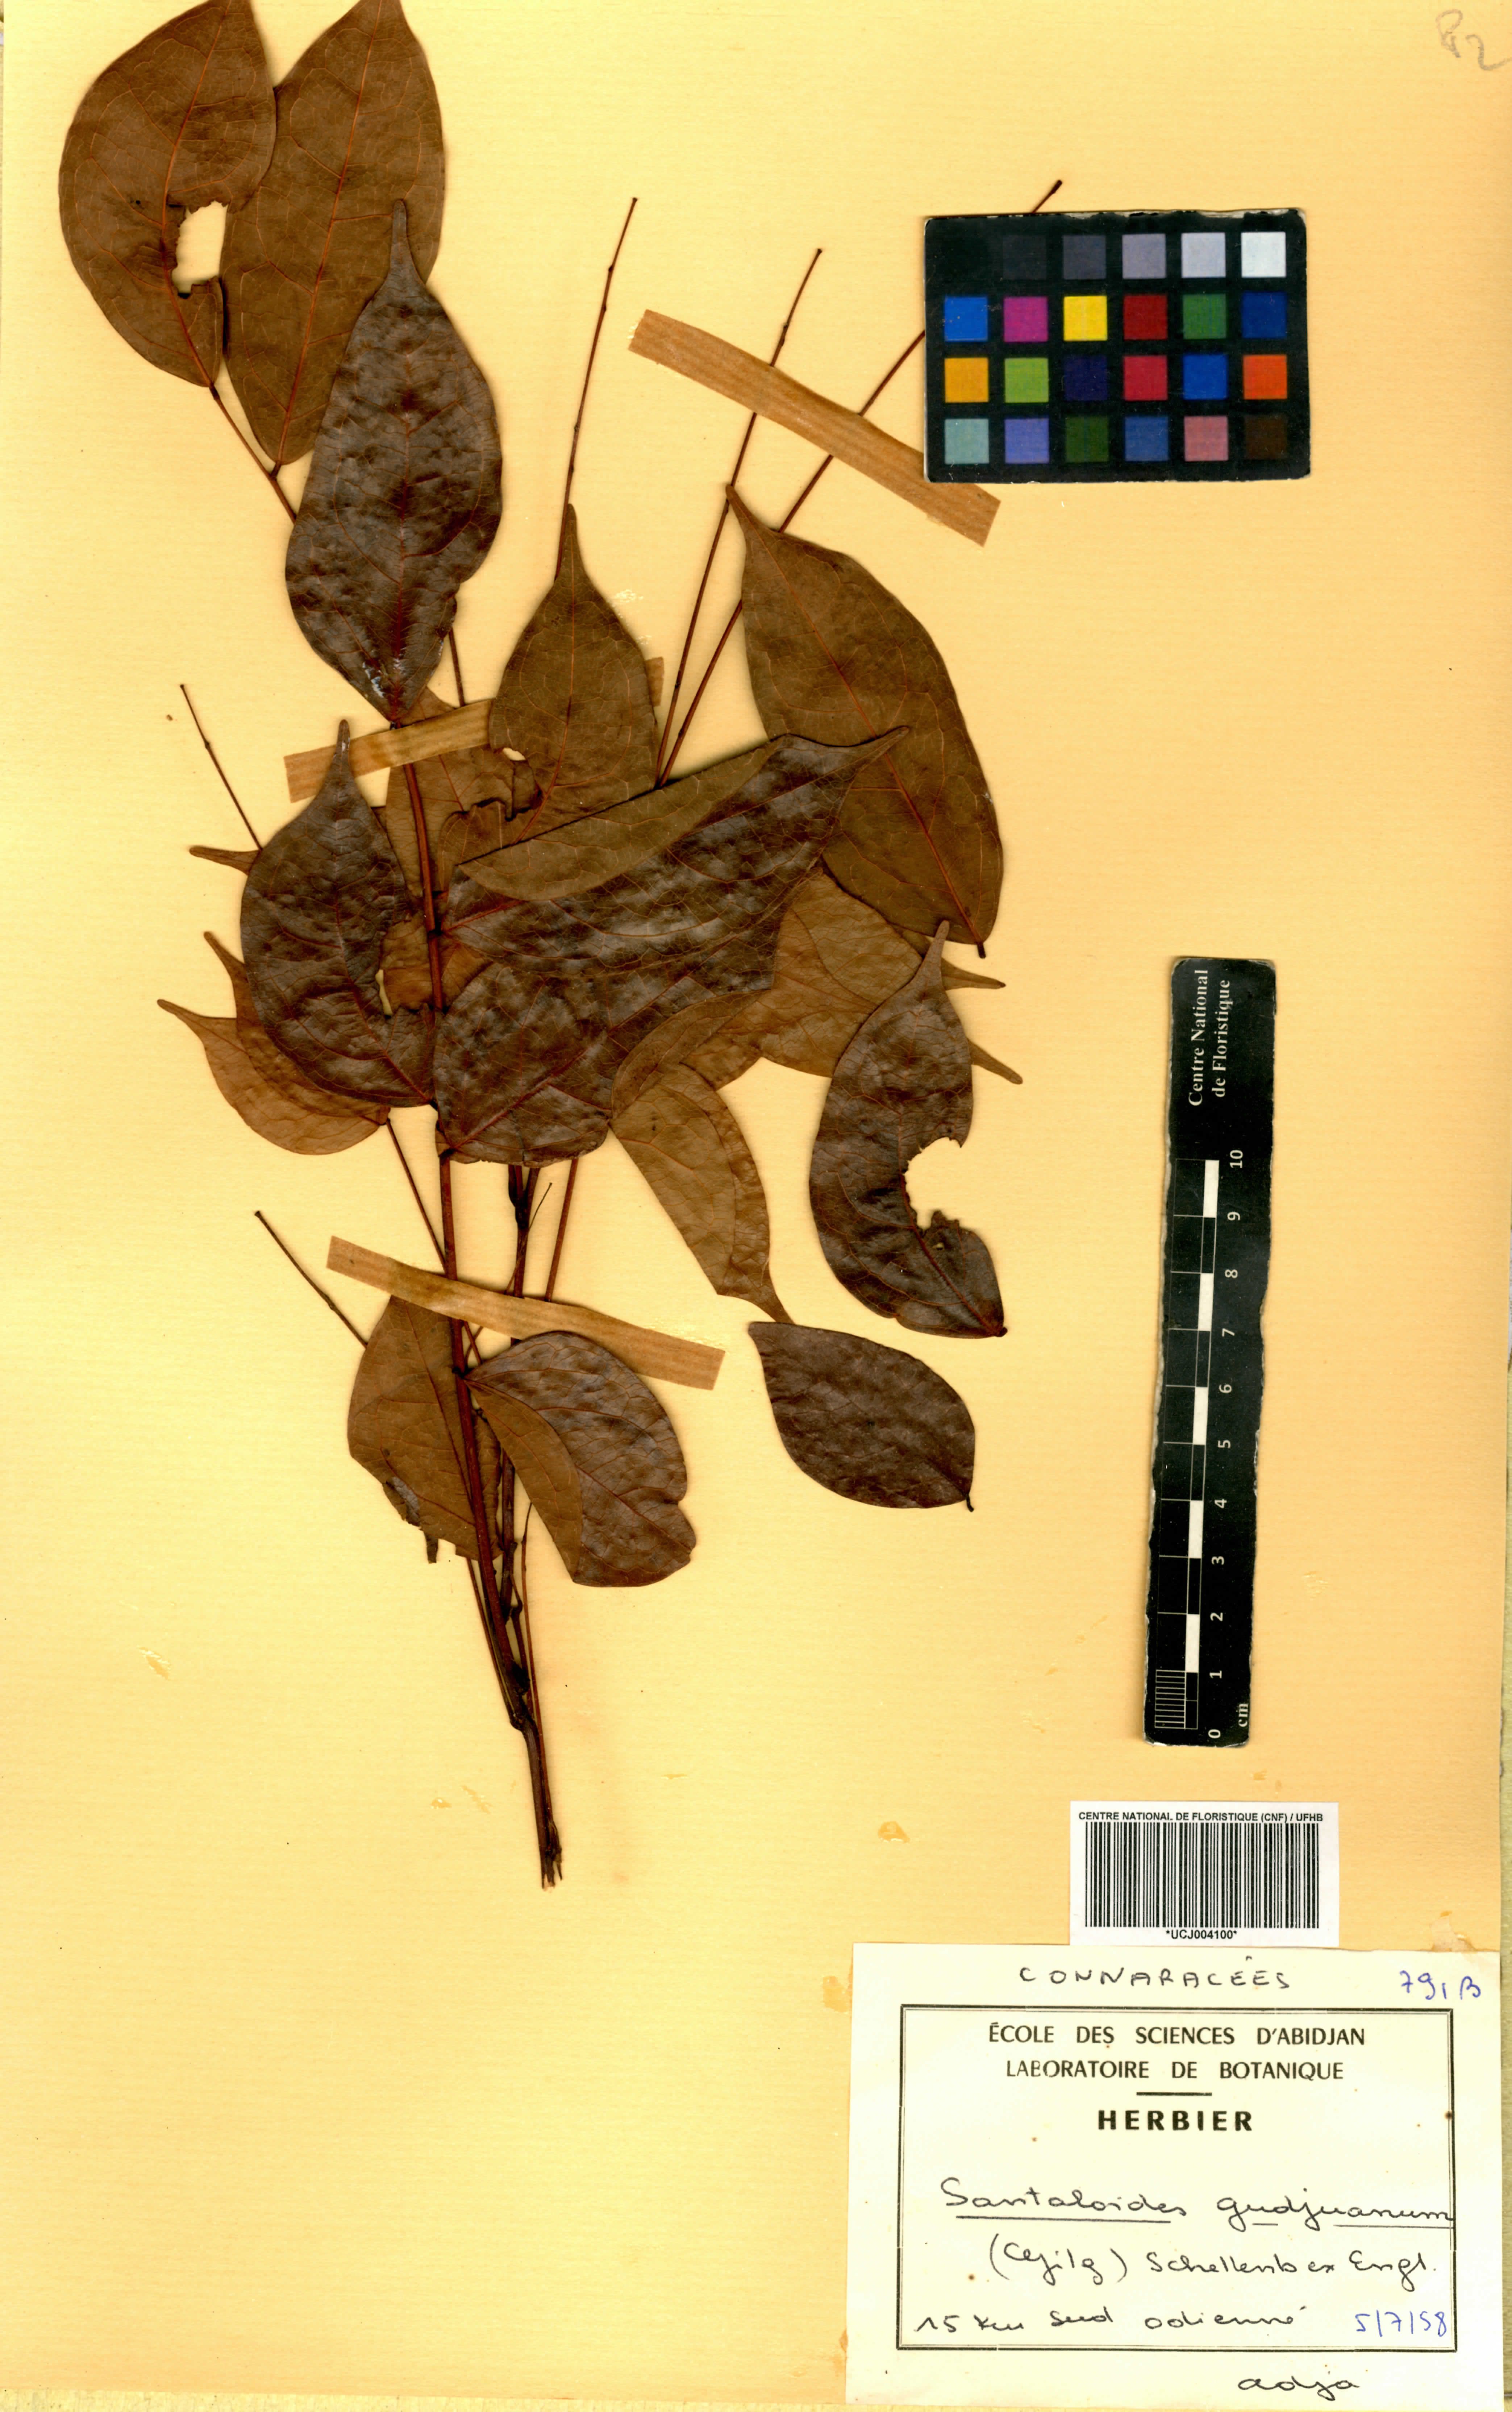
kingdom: Plantae
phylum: Tracheophyta
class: Magnoliopsida
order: Oxalidales
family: Connaraceae
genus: Rourea
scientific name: Rourea minor
